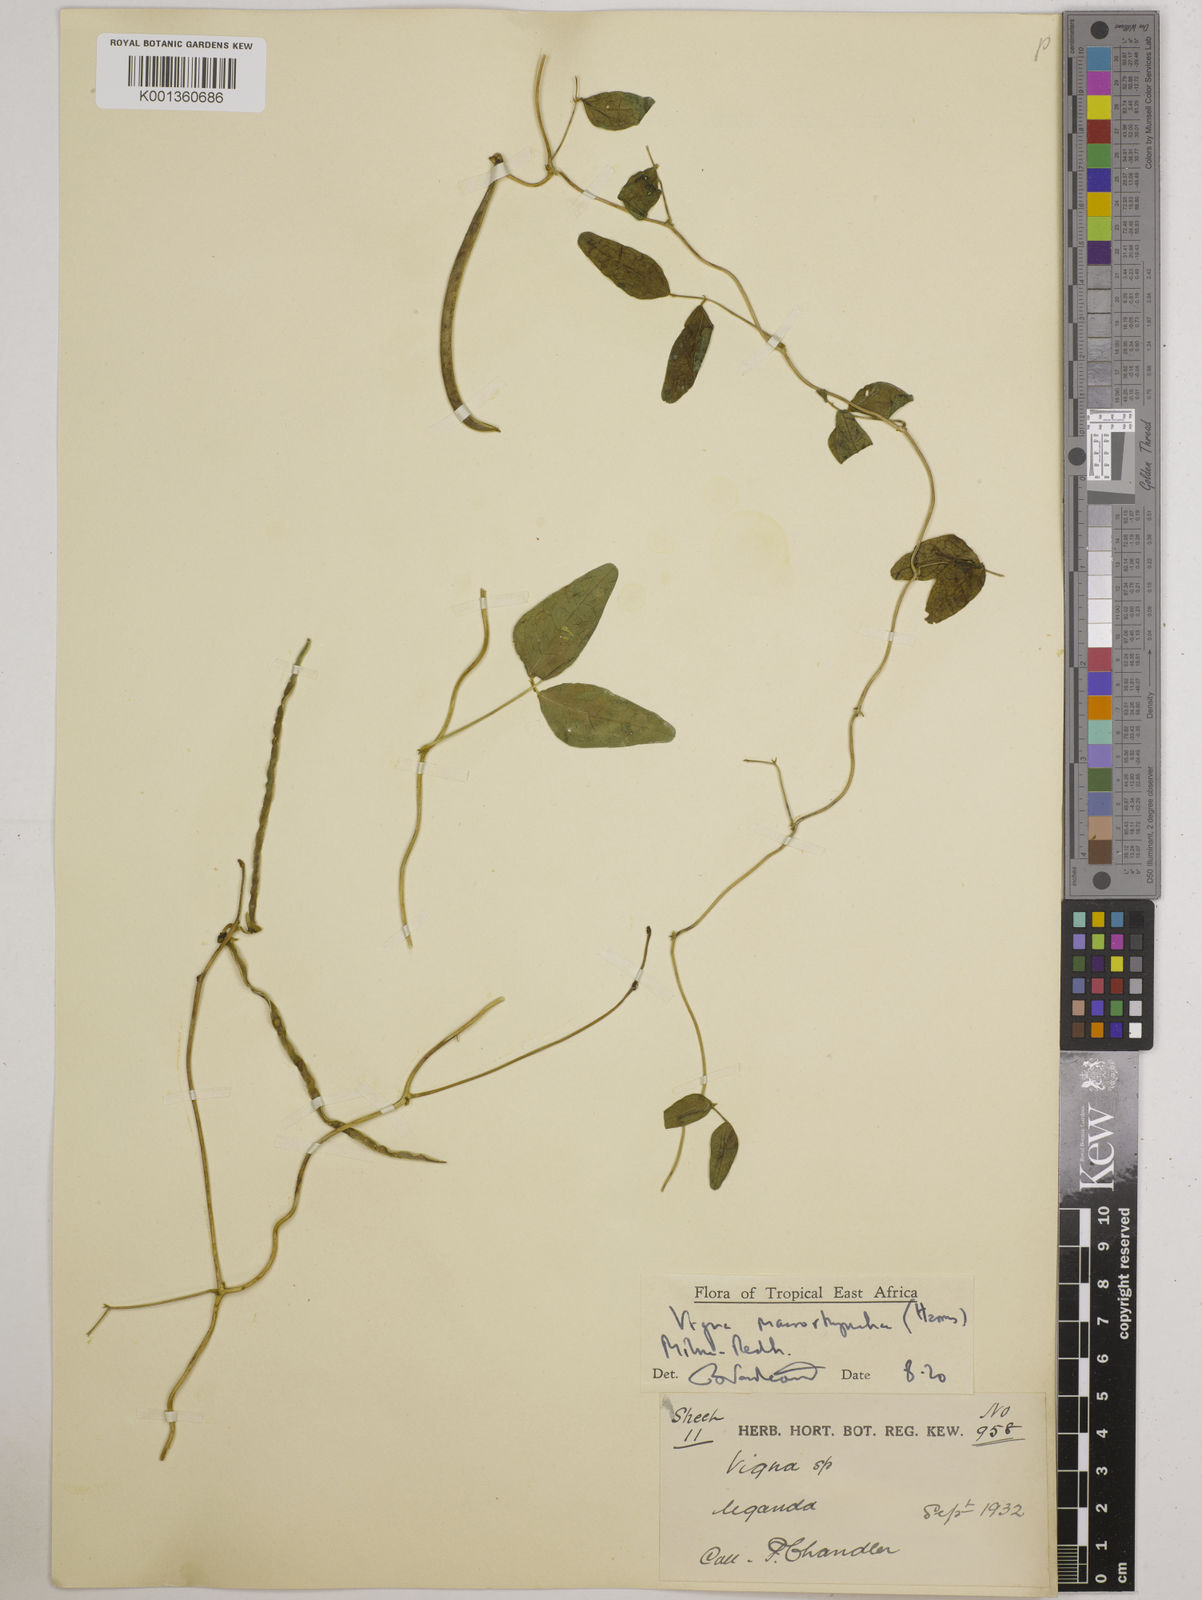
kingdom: Plantae
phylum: Tracheophyta
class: Magnoliopsida
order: Fabales
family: Fabaceae
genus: Wajira
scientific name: Wajira grahamiana
